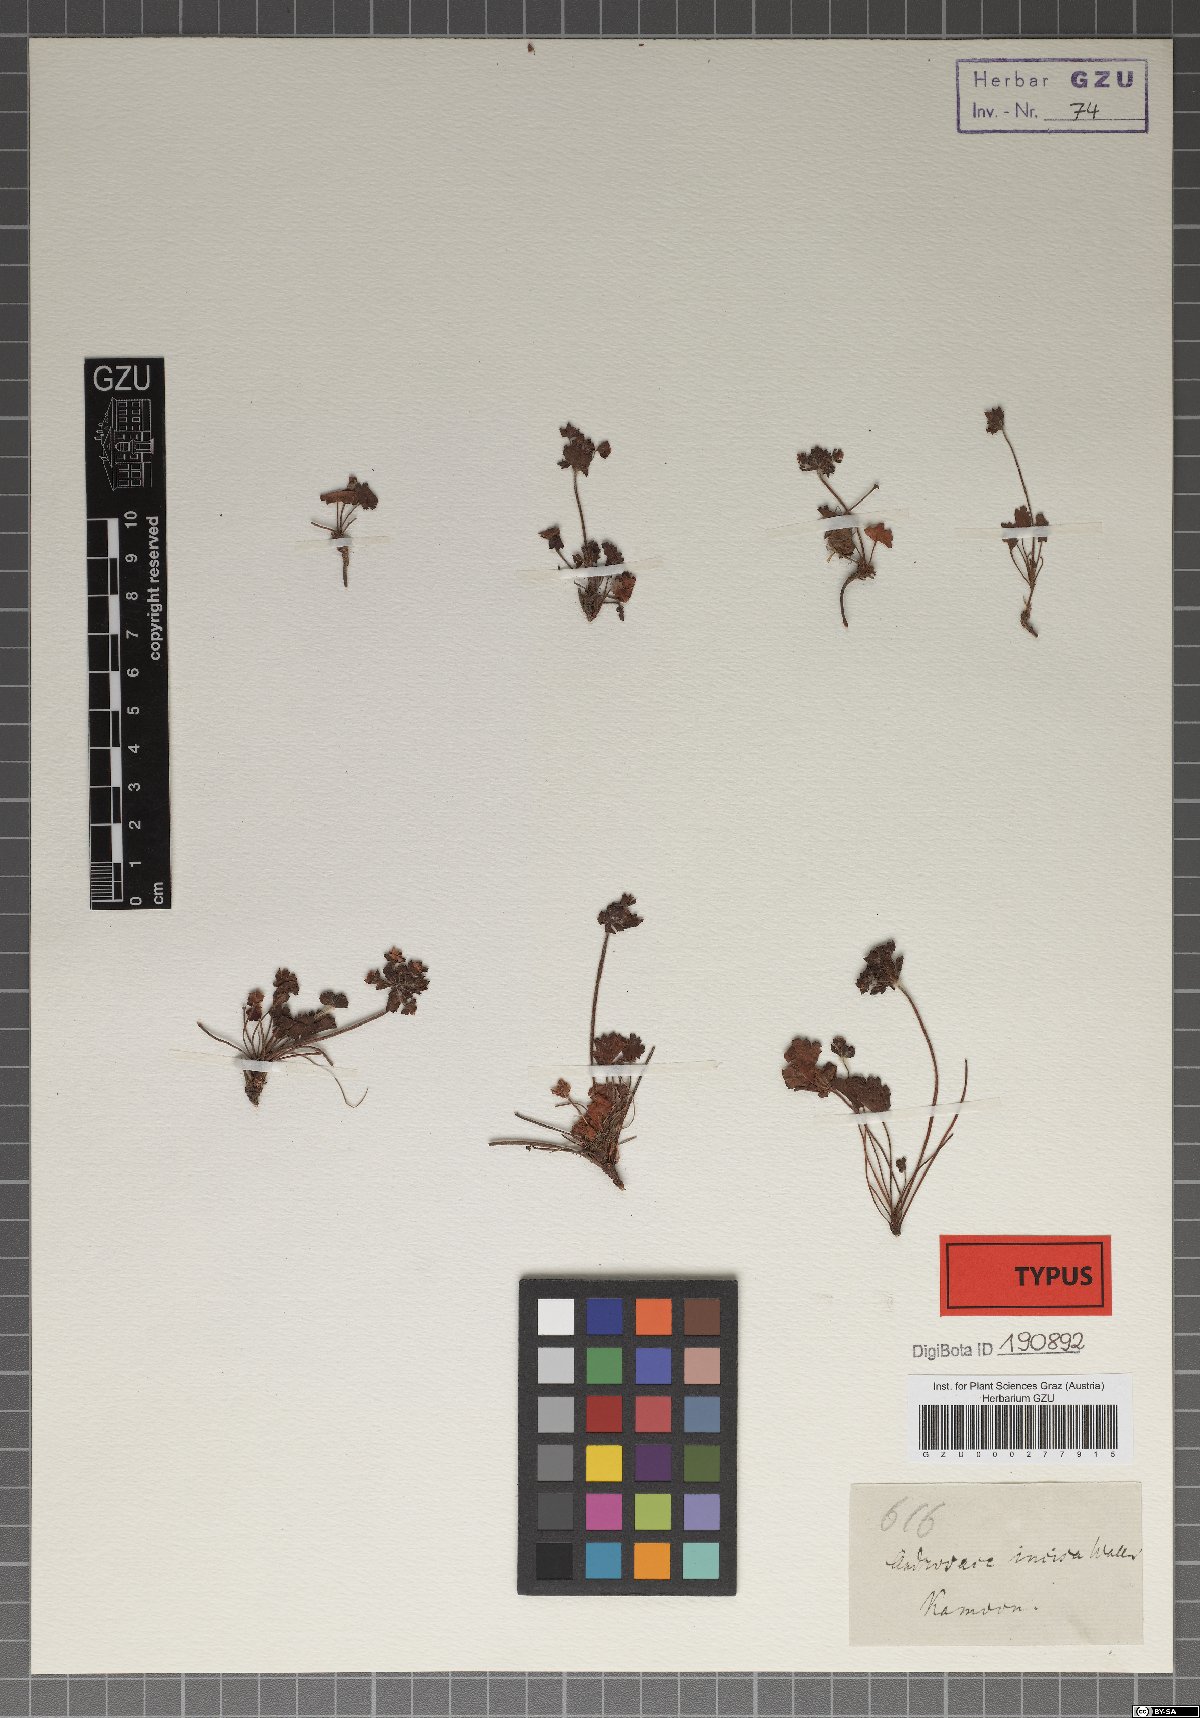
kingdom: Plantae
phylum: Tracheophyta
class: Magnoliopsida
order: Ericales
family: Primulaceae
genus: Androsace
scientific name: Androsace rotundifolia
